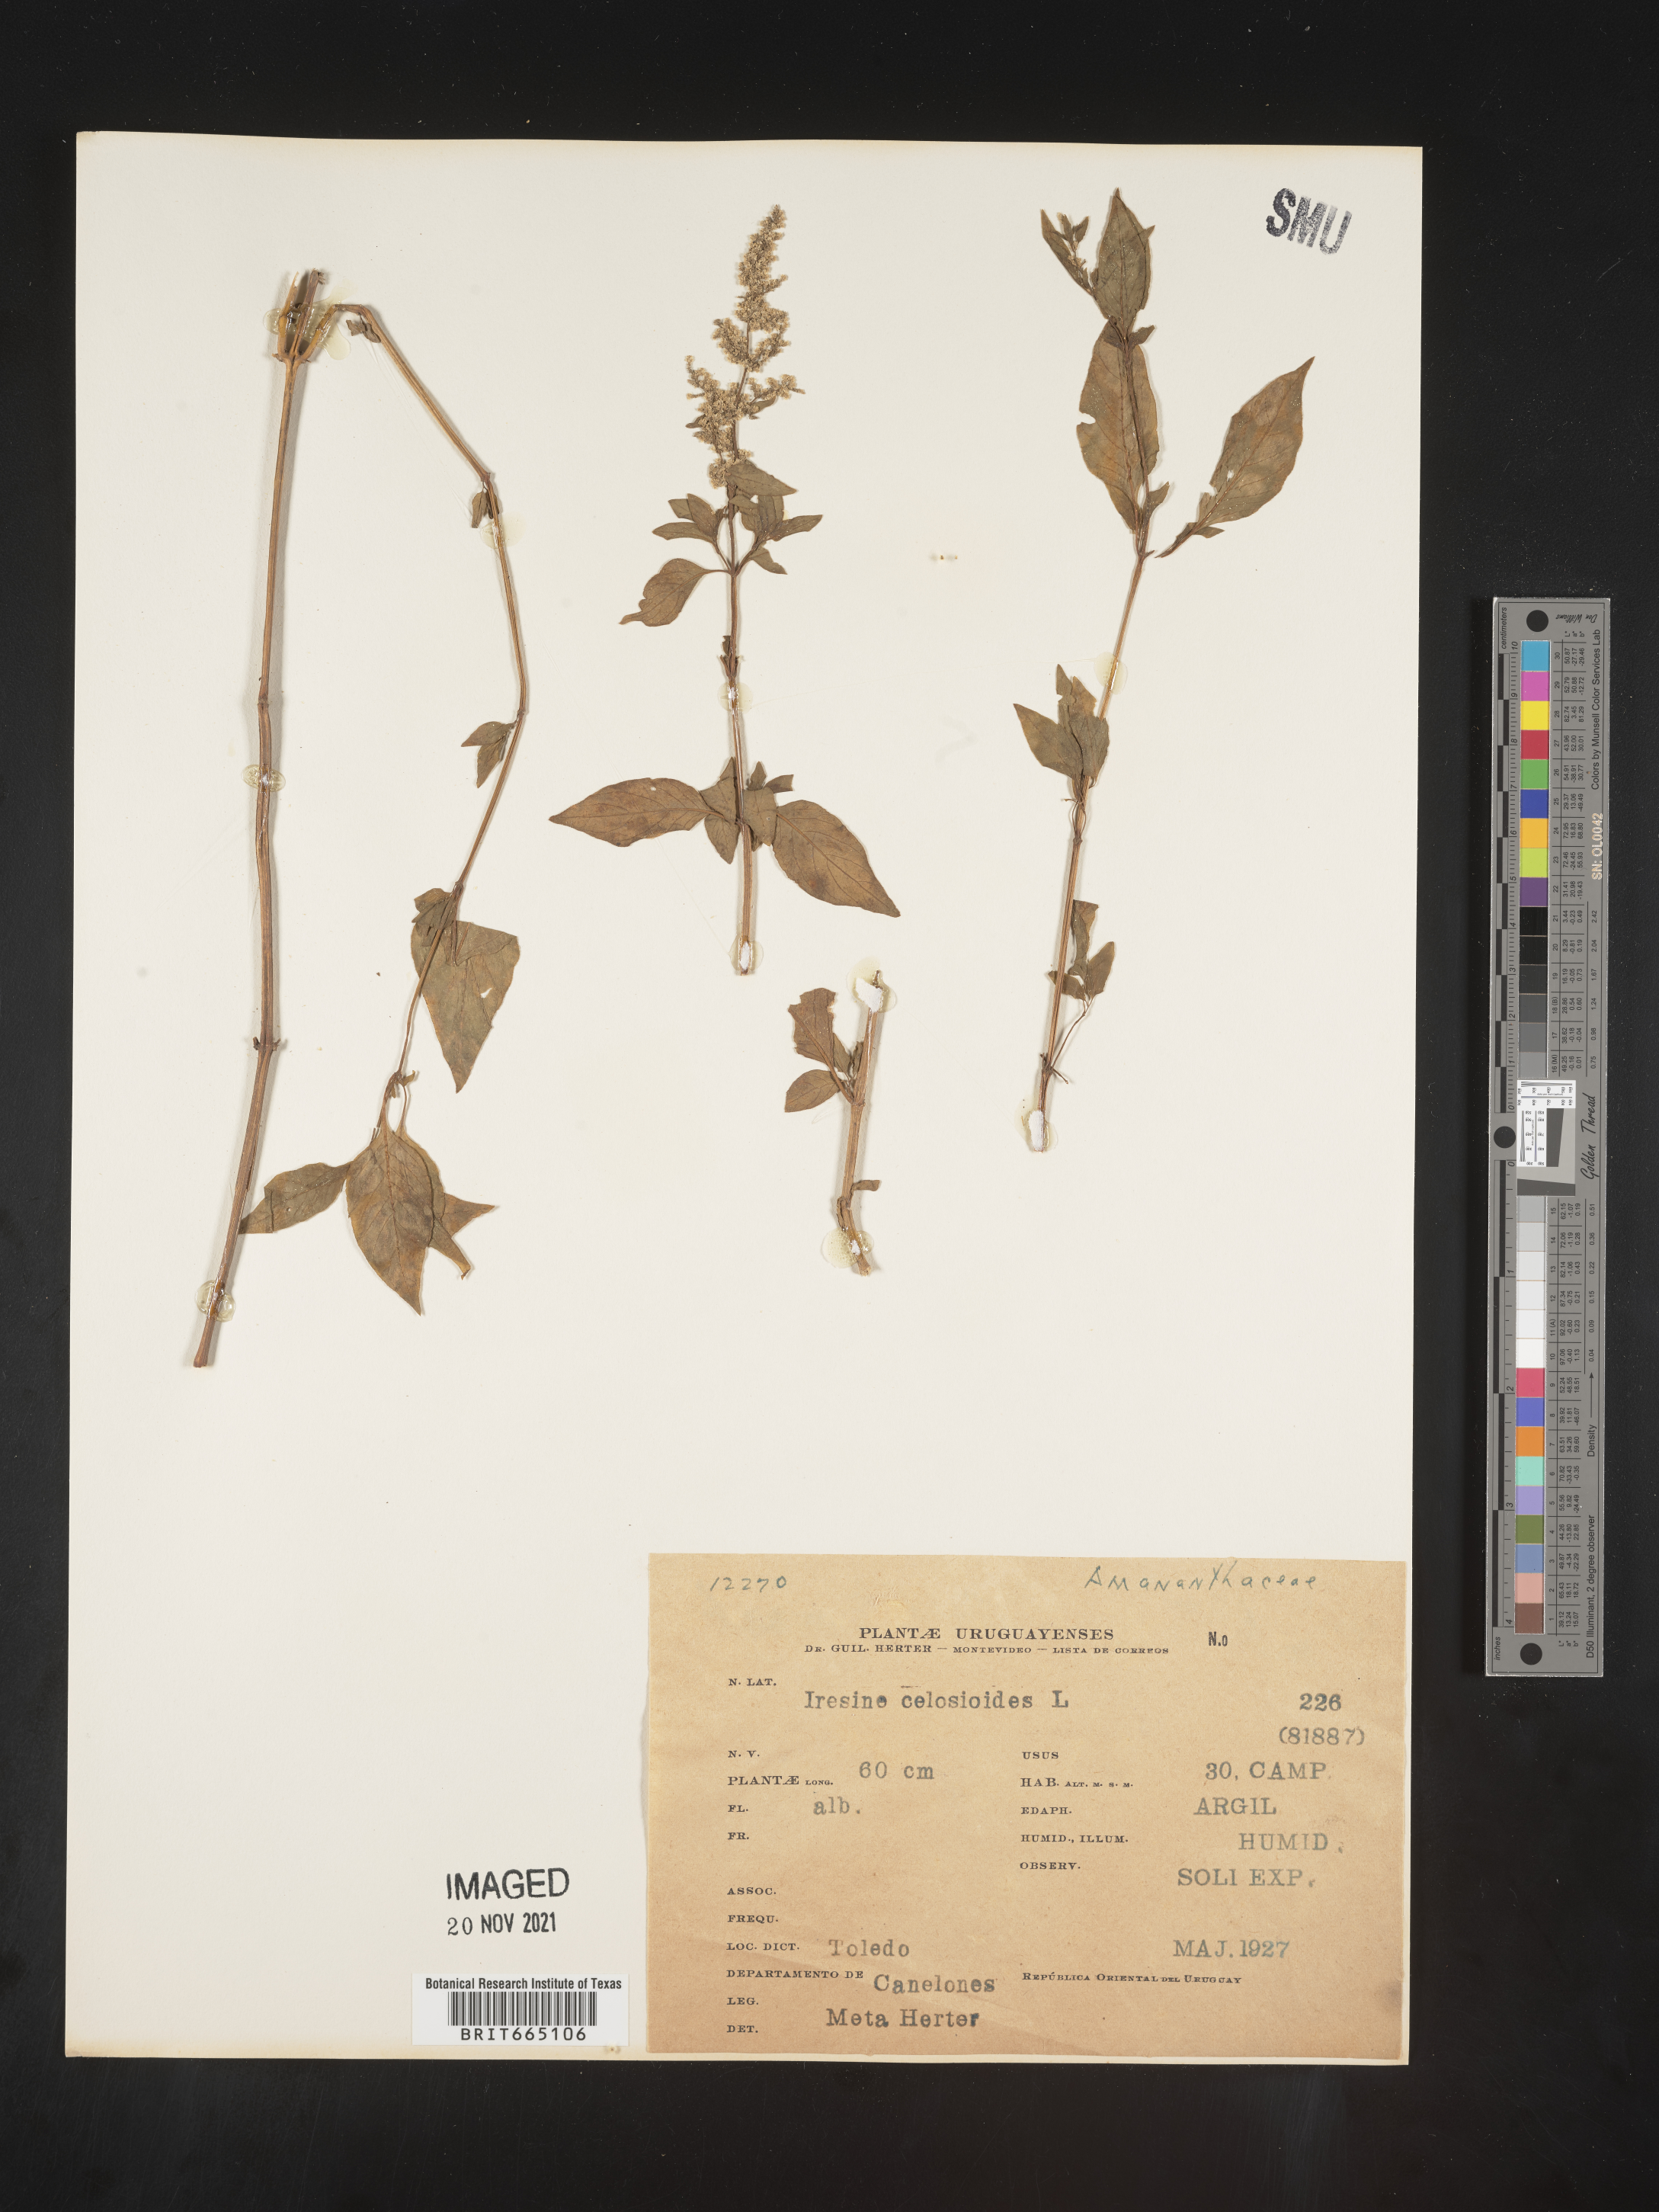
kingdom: Plantae
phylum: Tracheophyta
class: Magnoliopsida
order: Caryophyllales
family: Amaranthaceae
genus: Iresine
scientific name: Iresine
